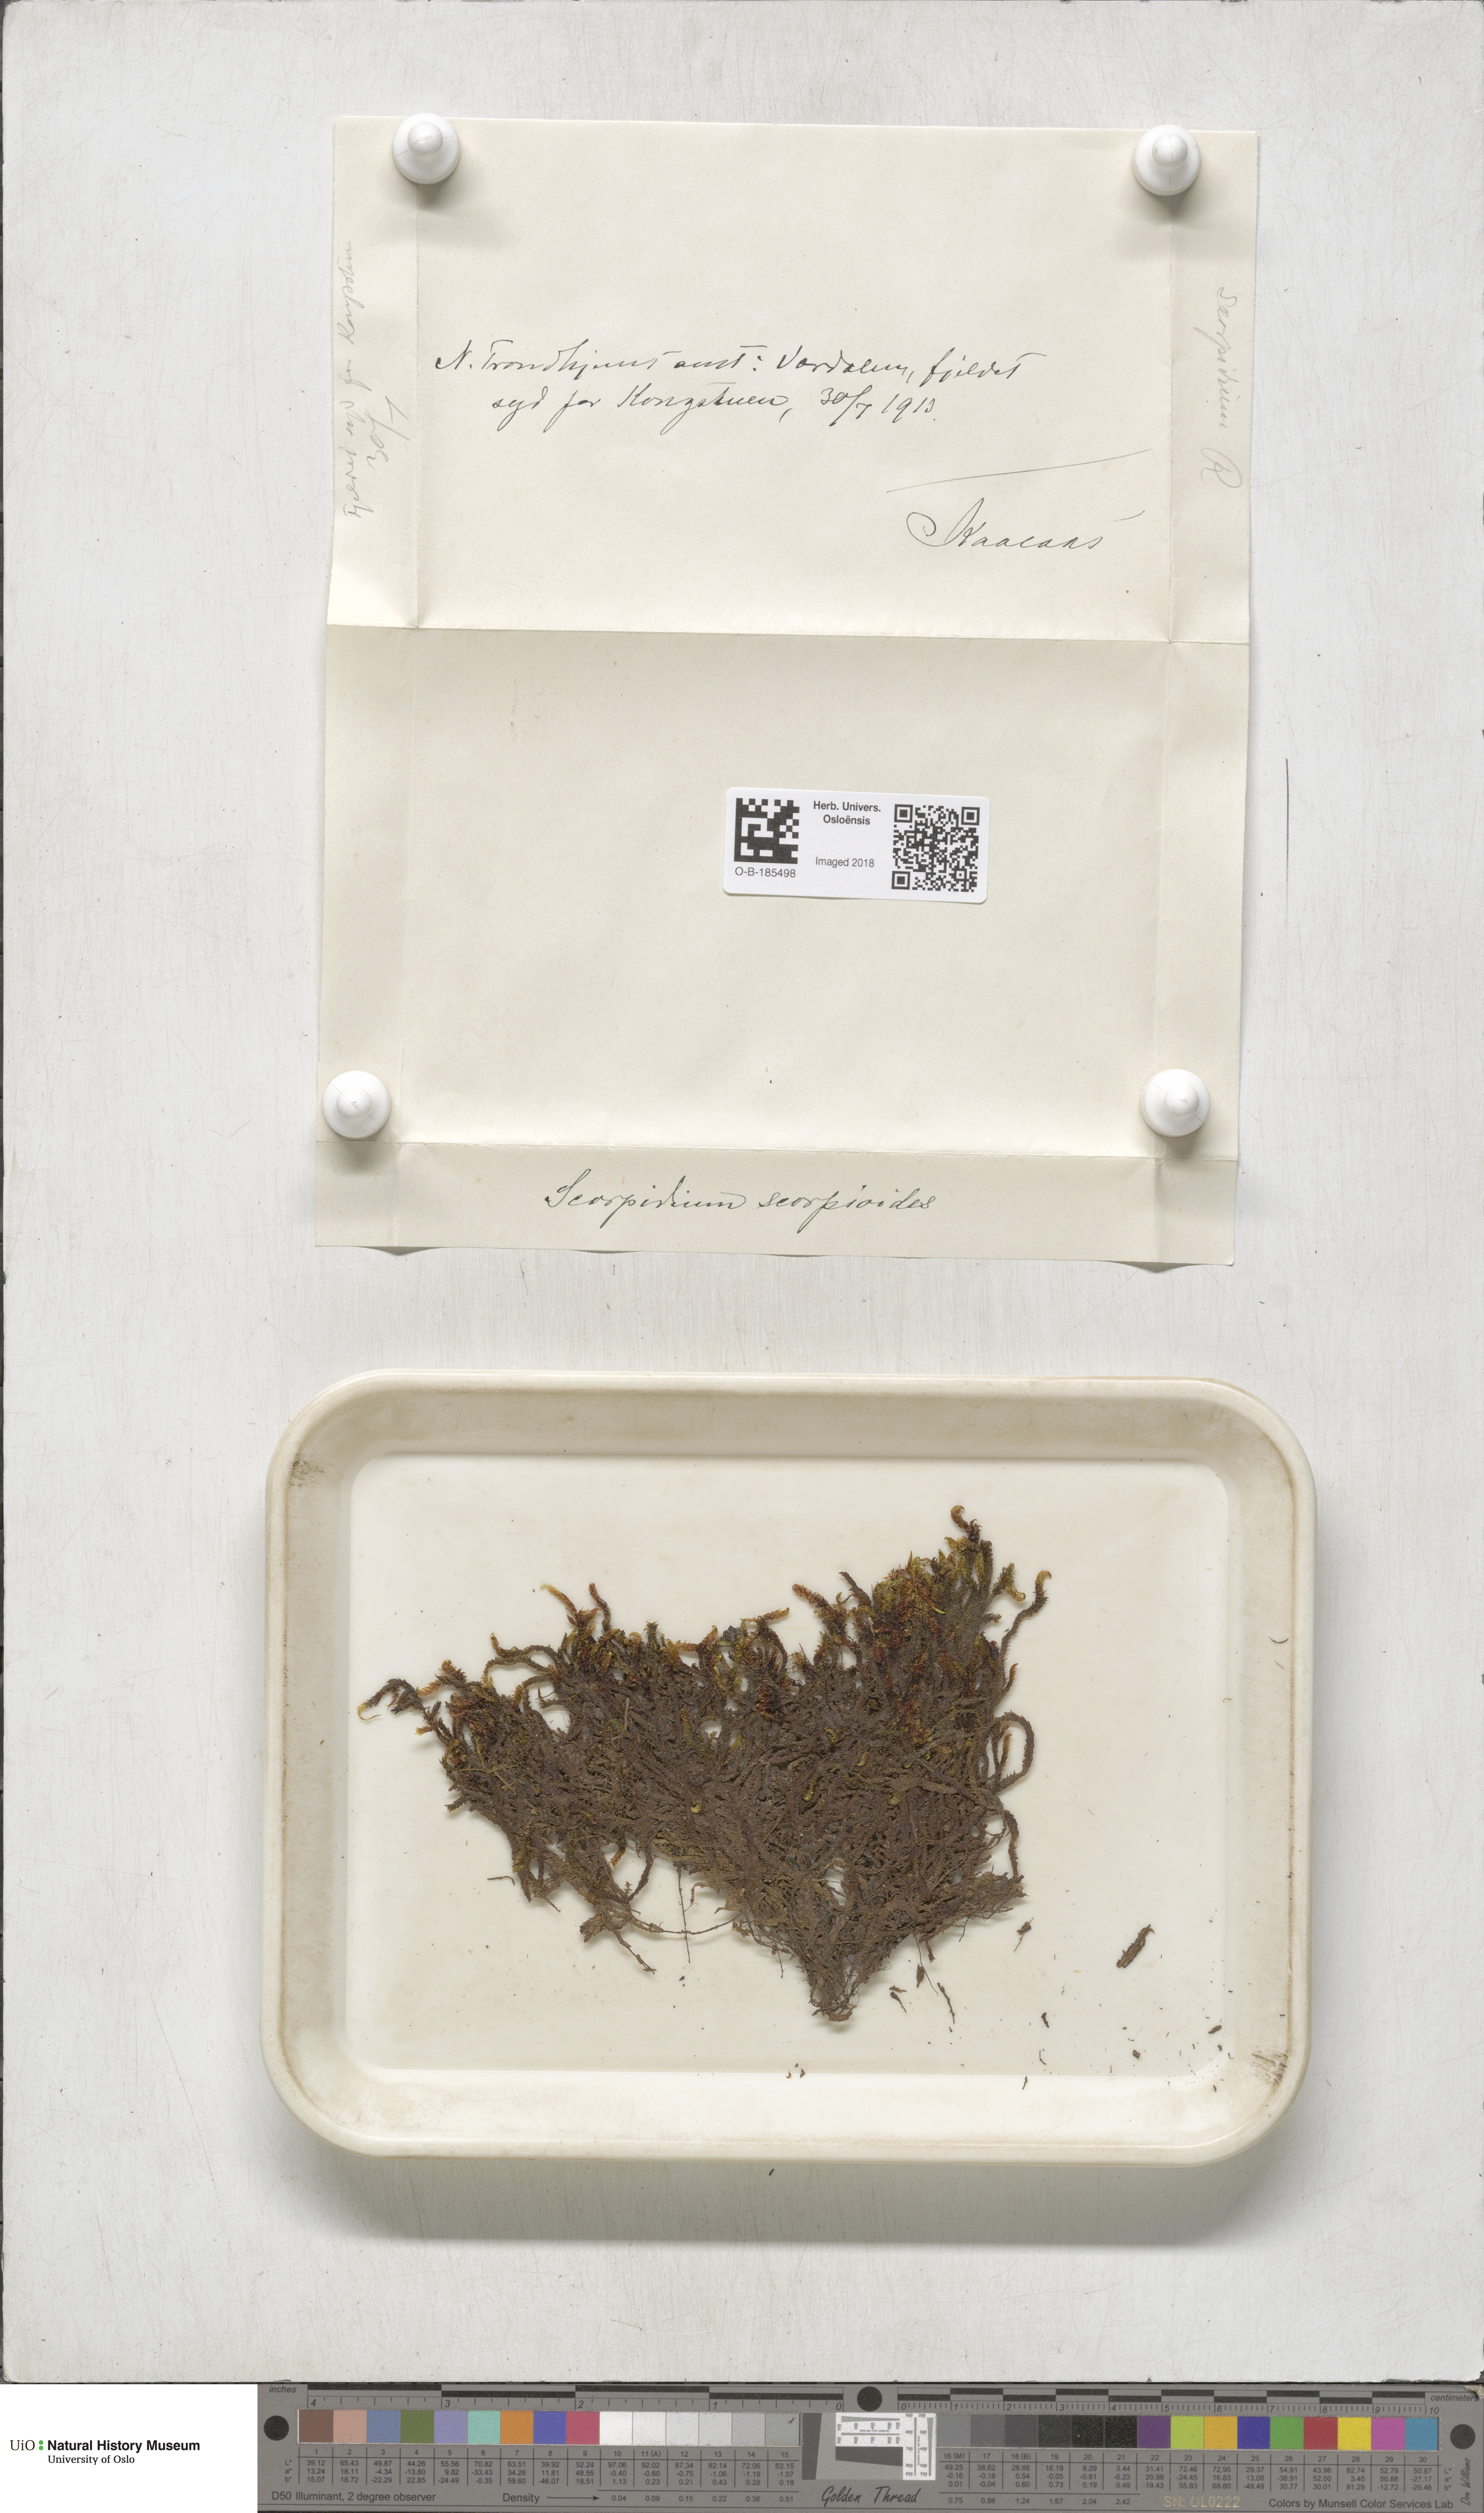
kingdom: Plantae
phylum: Bryophyta
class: Bryopsida
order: Hypnales
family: Scorpidiaceae
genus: Scorpidium
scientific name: Scorpidium scorpioides
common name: Hooked scorpion moss
